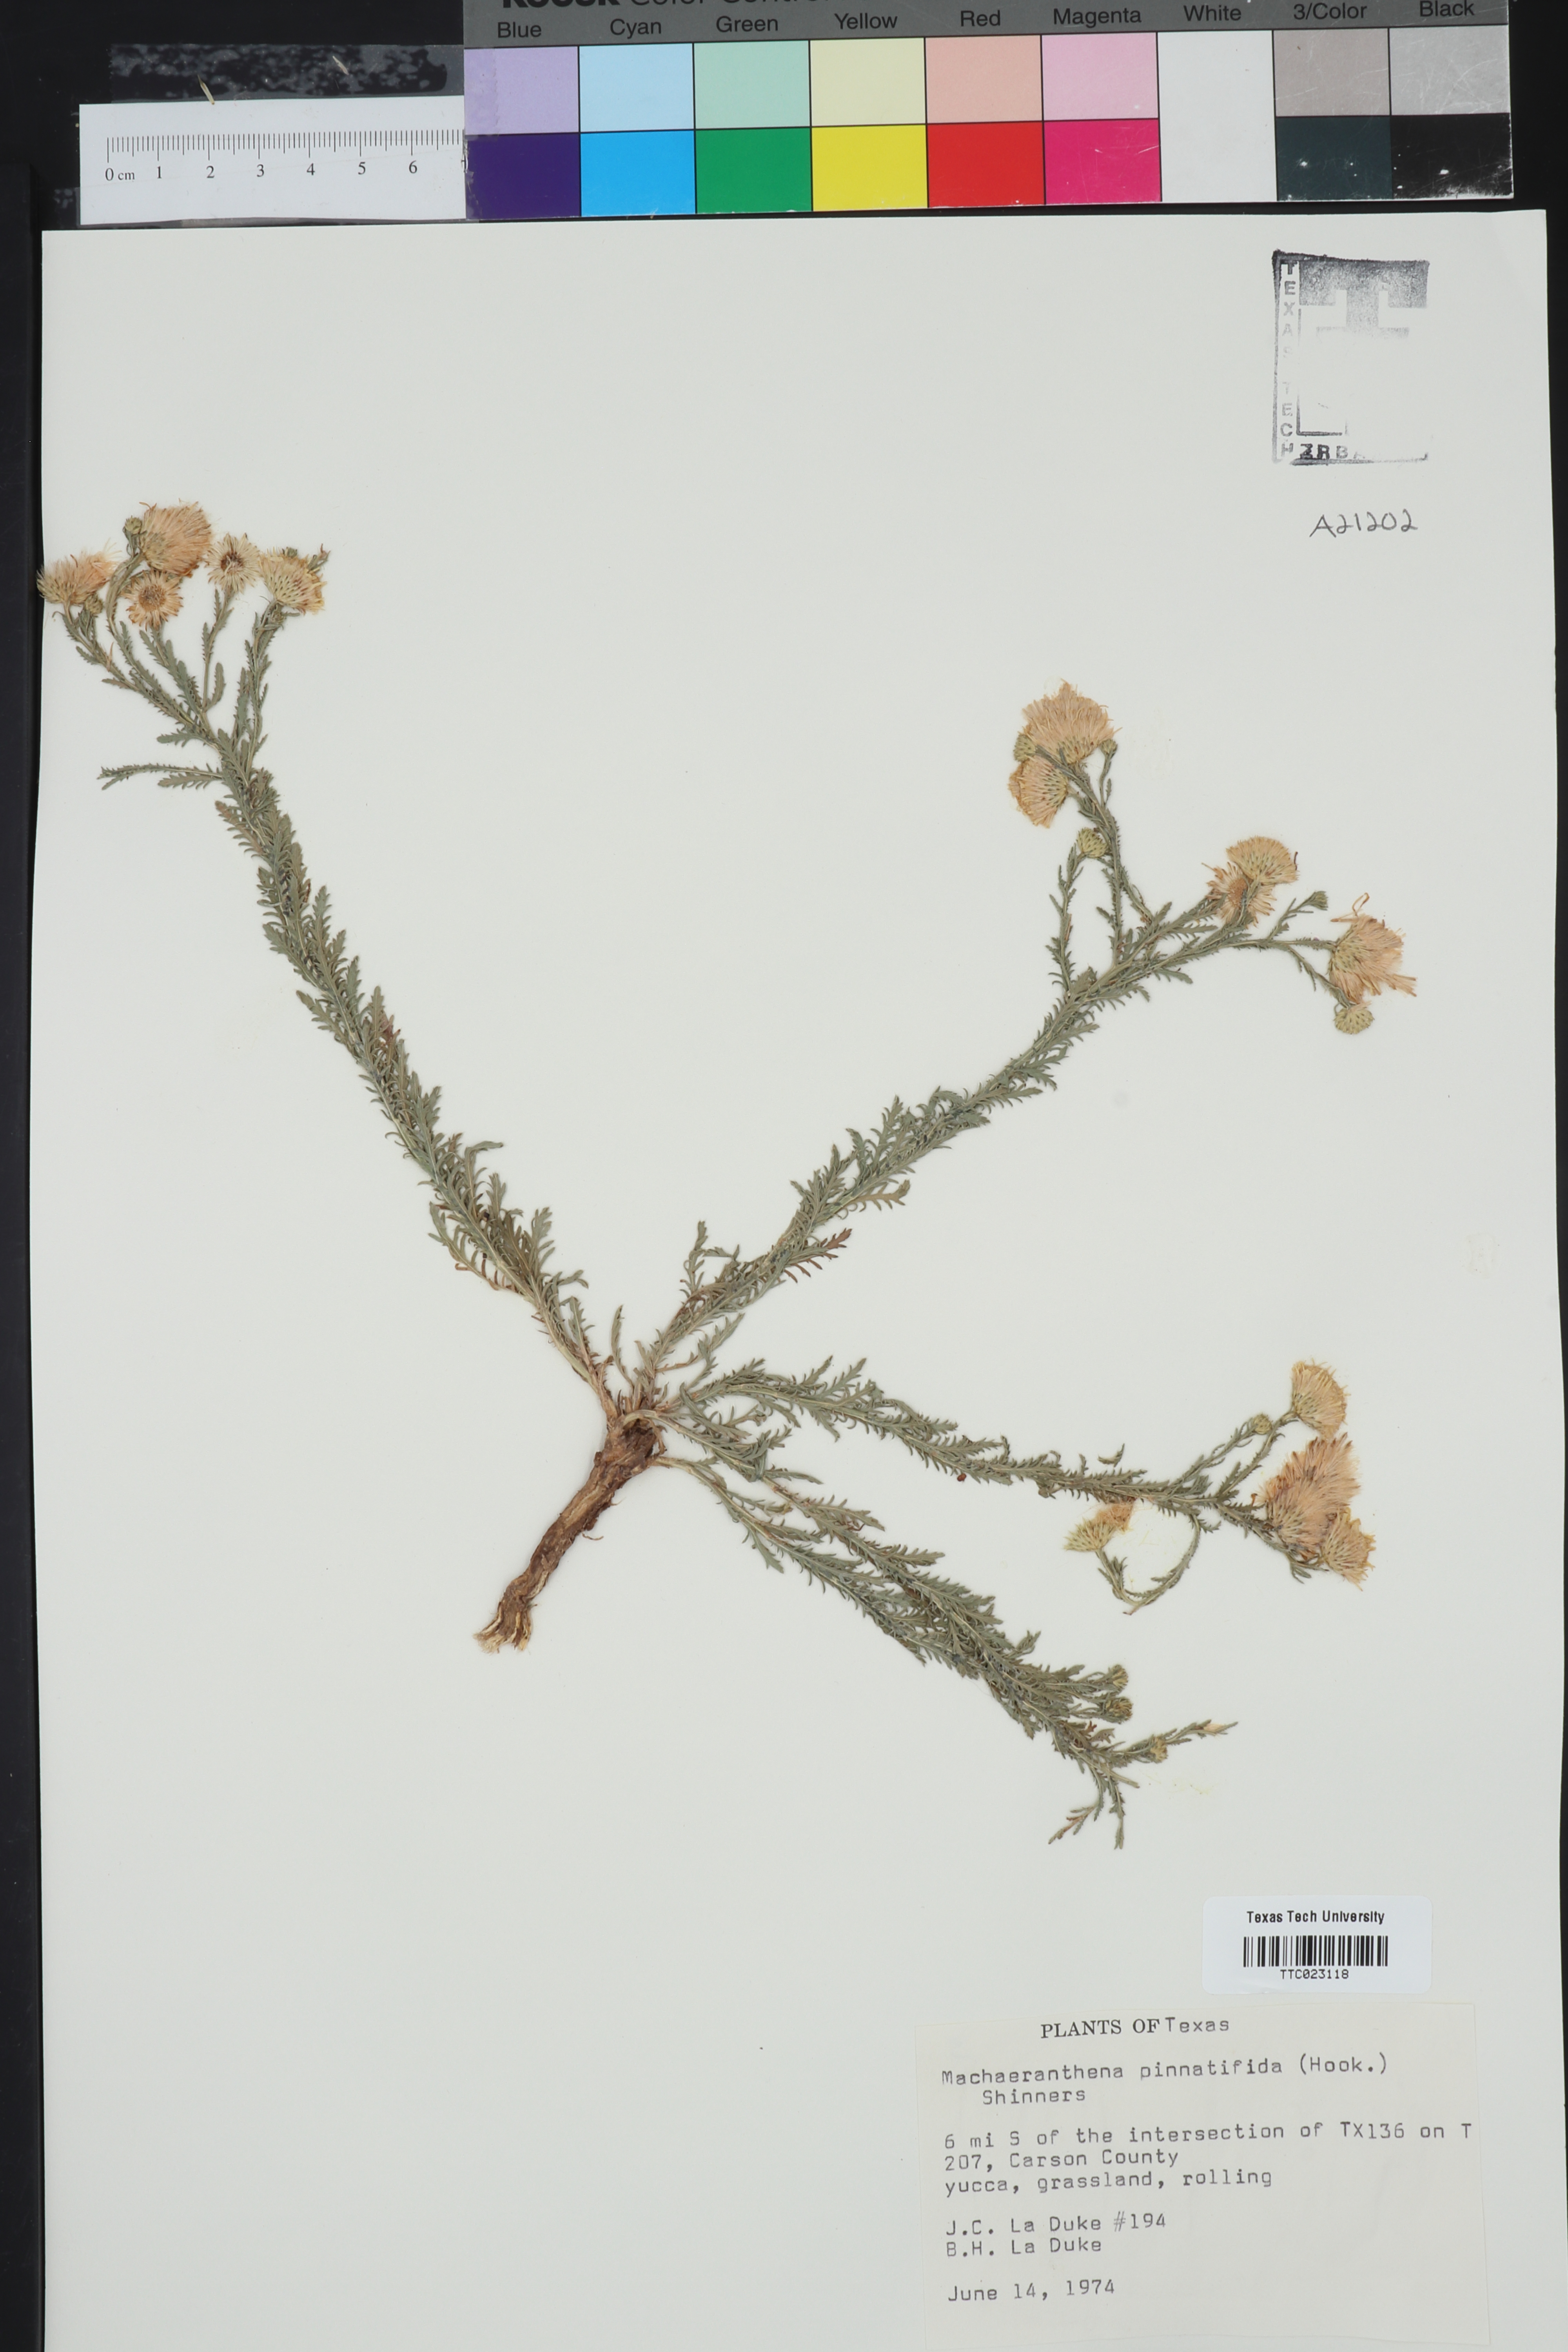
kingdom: Plantae
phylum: Tracheophyta
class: Magnoliopsida
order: Asterales
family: Asteraceae
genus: Xanthisma
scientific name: Xanthisma spinulosum
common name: Spiny goldenweed
